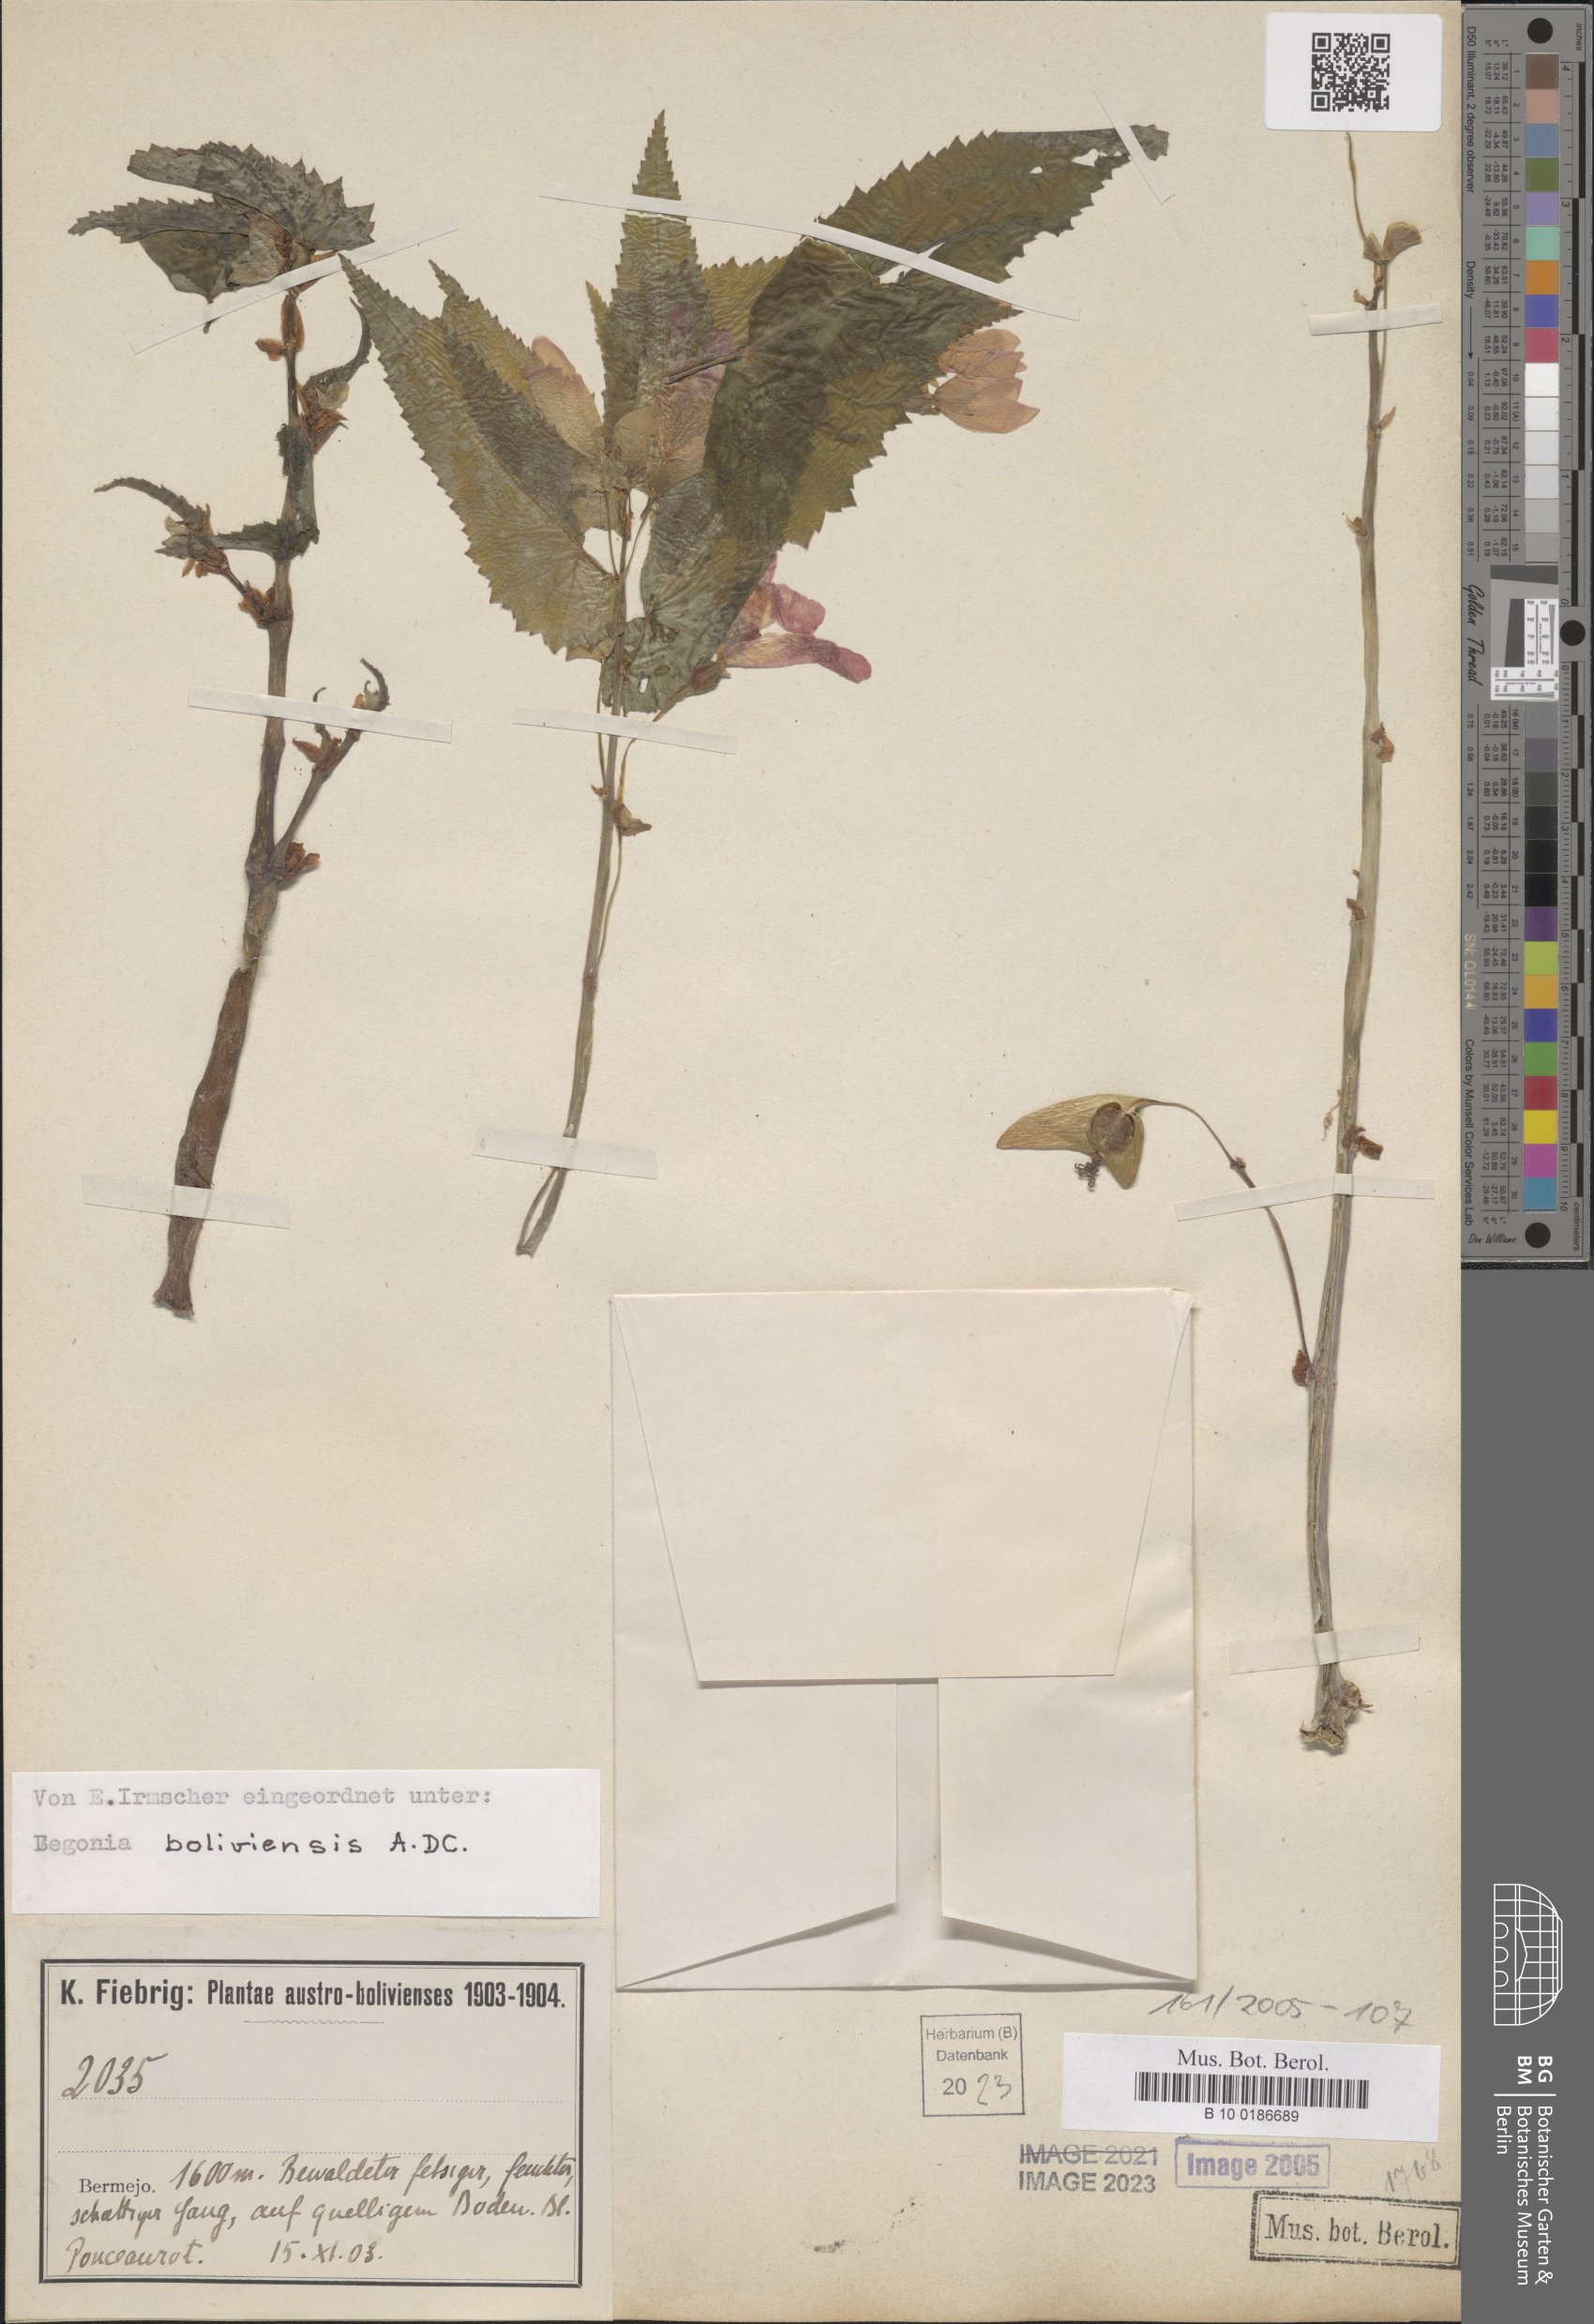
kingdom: Plantae
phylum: Tracheophyta
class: Magnoliopsida
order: Cucurbitales
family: Begoniaceae
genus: Begonia
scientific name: Begonia boliviensis
